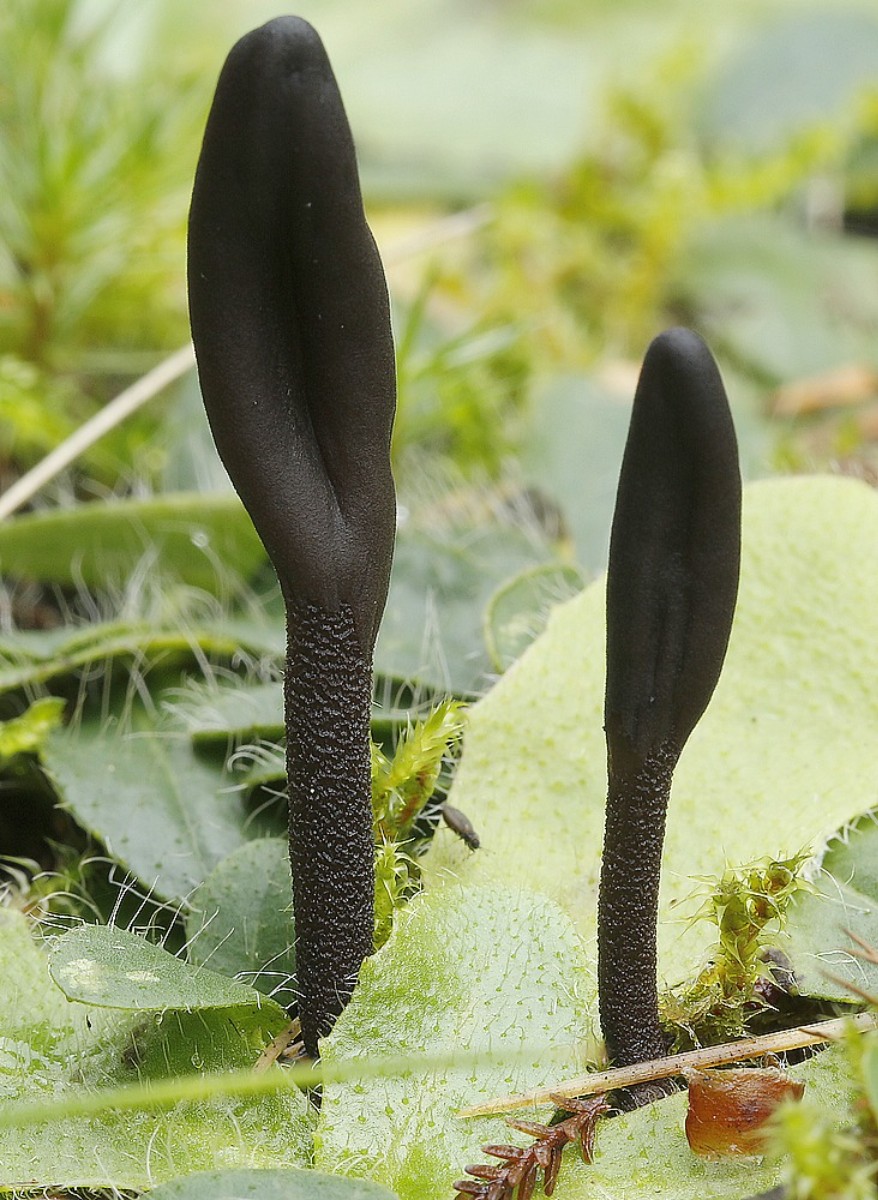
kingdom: Fungi
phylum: Ascomycota
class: Geoglossomycetes
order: Geoglossales
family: Geoglossaceae
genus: Hemileucoglossum
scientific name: Hemileucoglossum elongatum
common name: småsporet jordtunge
